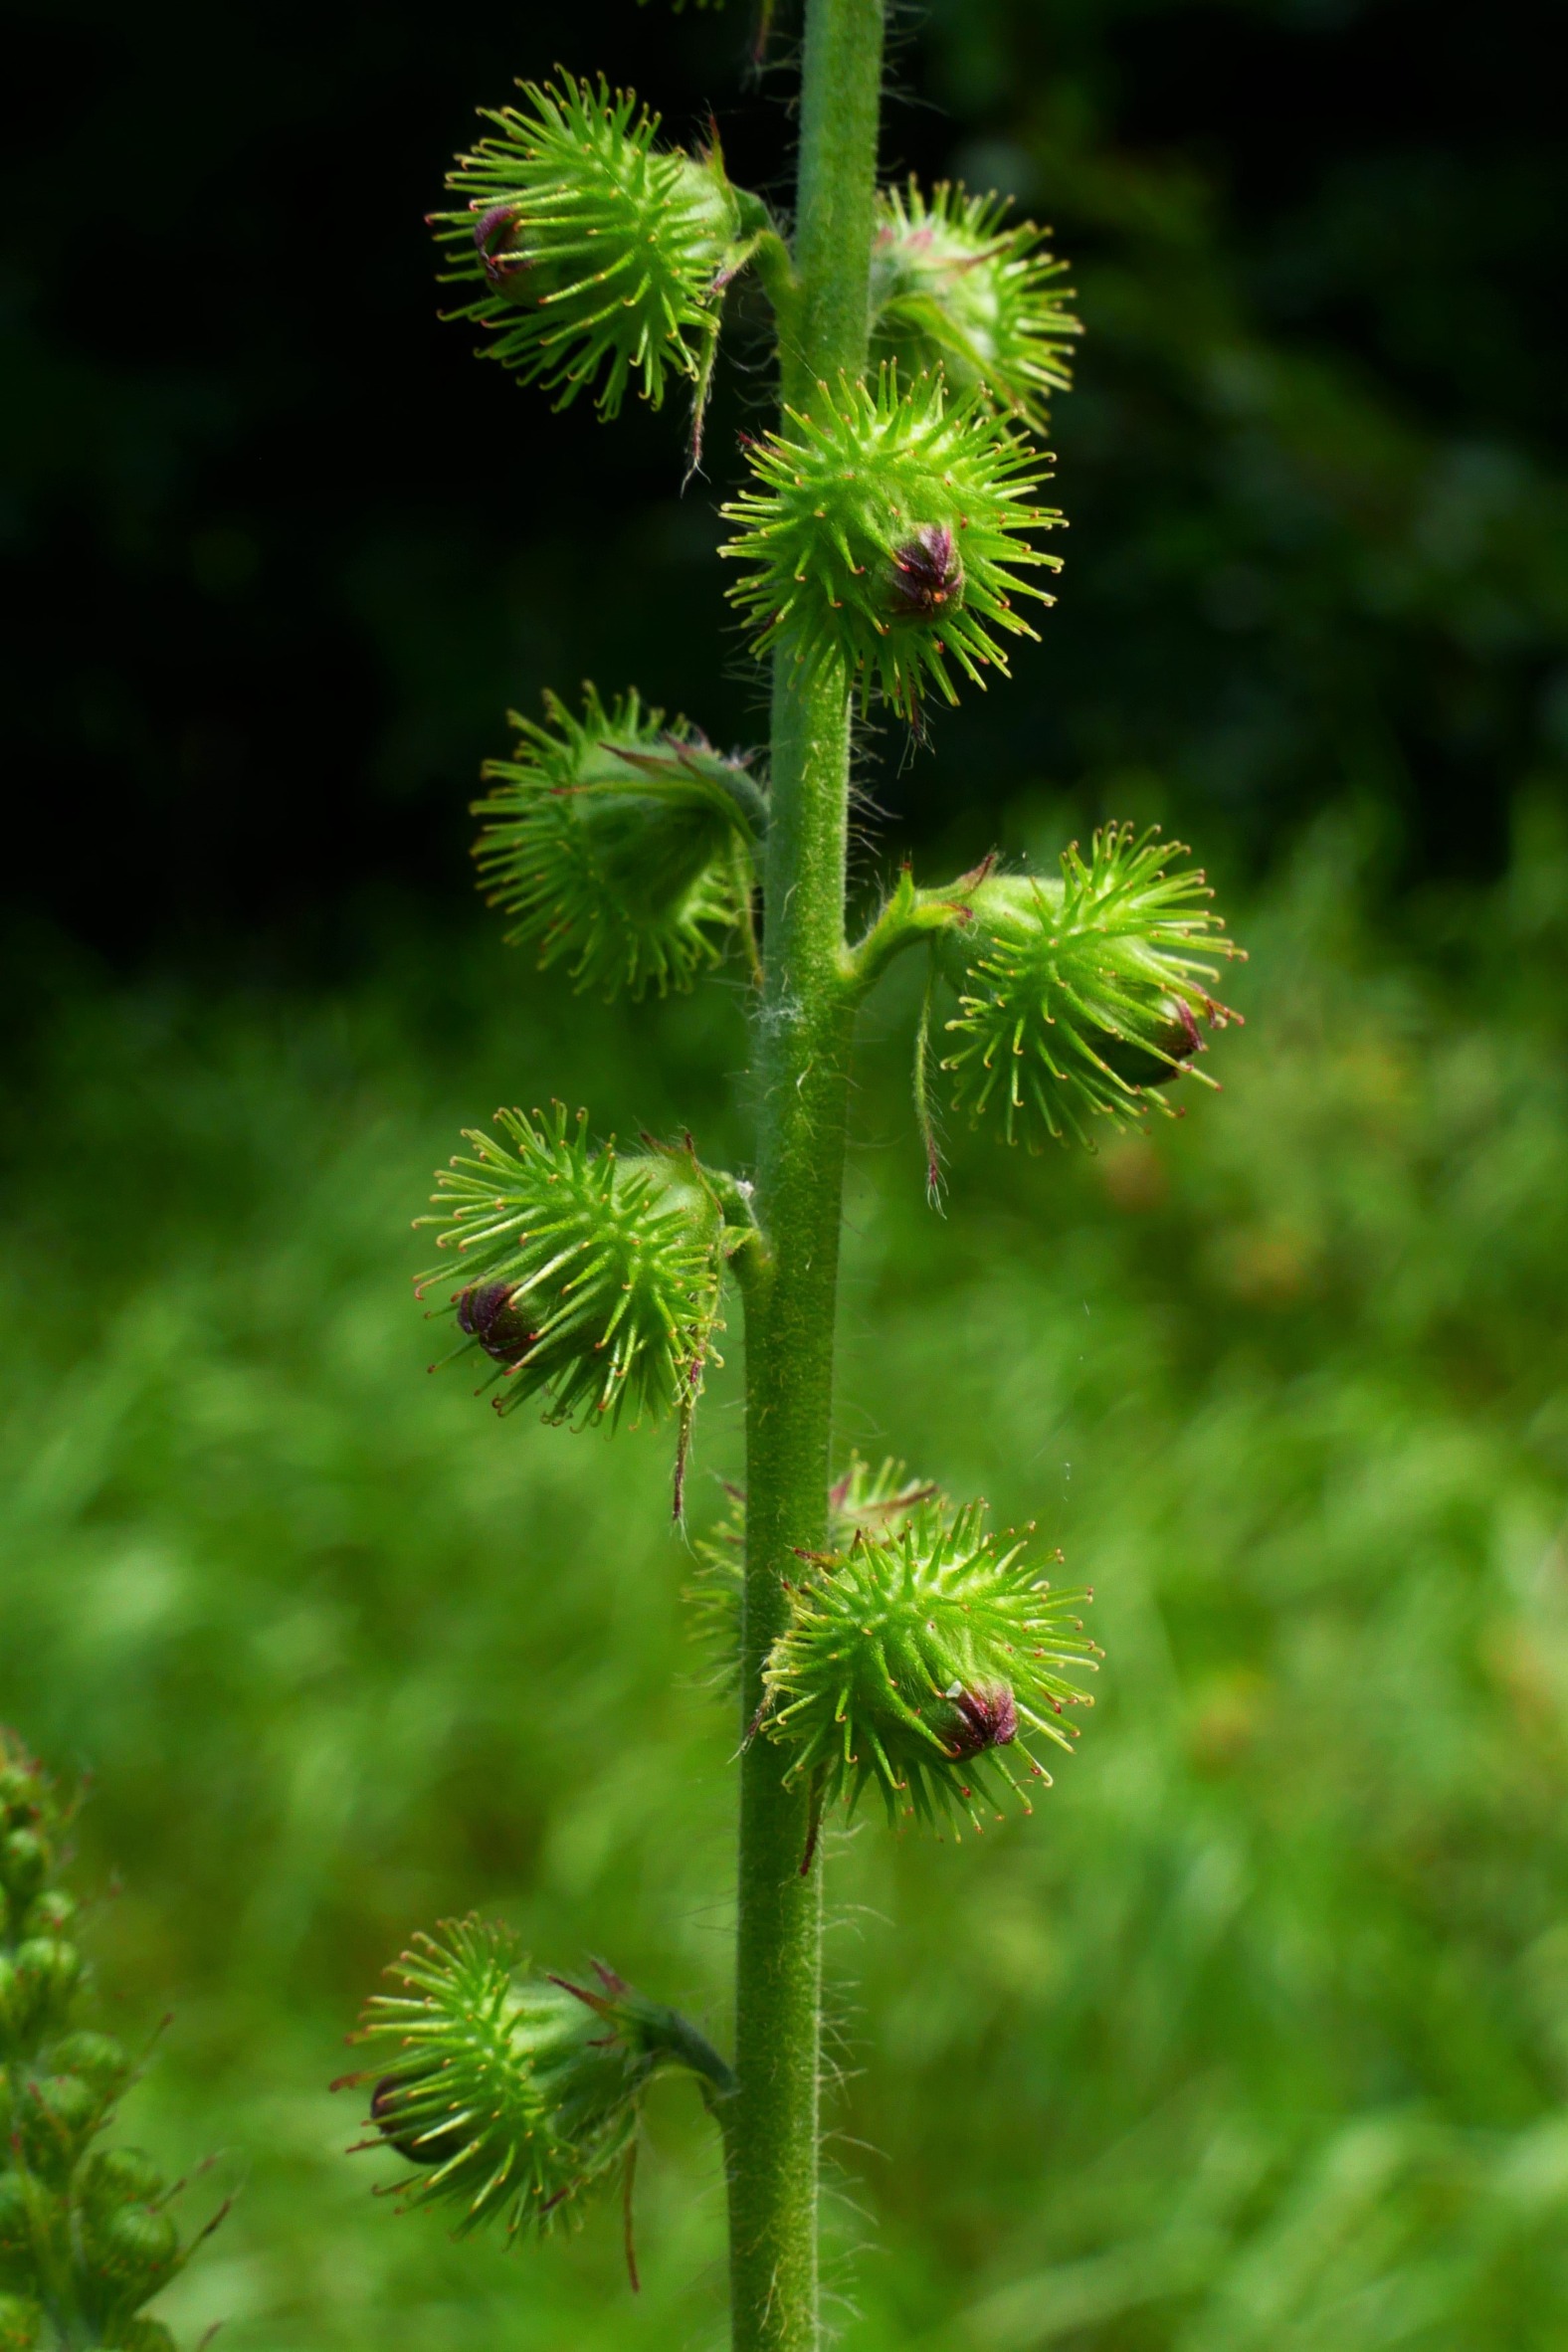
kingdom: Plantae
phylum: Tracheophyta
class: Magnoliopsida
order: Rosales
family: Rosaceae
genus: Agrimonia
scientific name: Agrimonia procera
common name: Vellugtende agermåne
